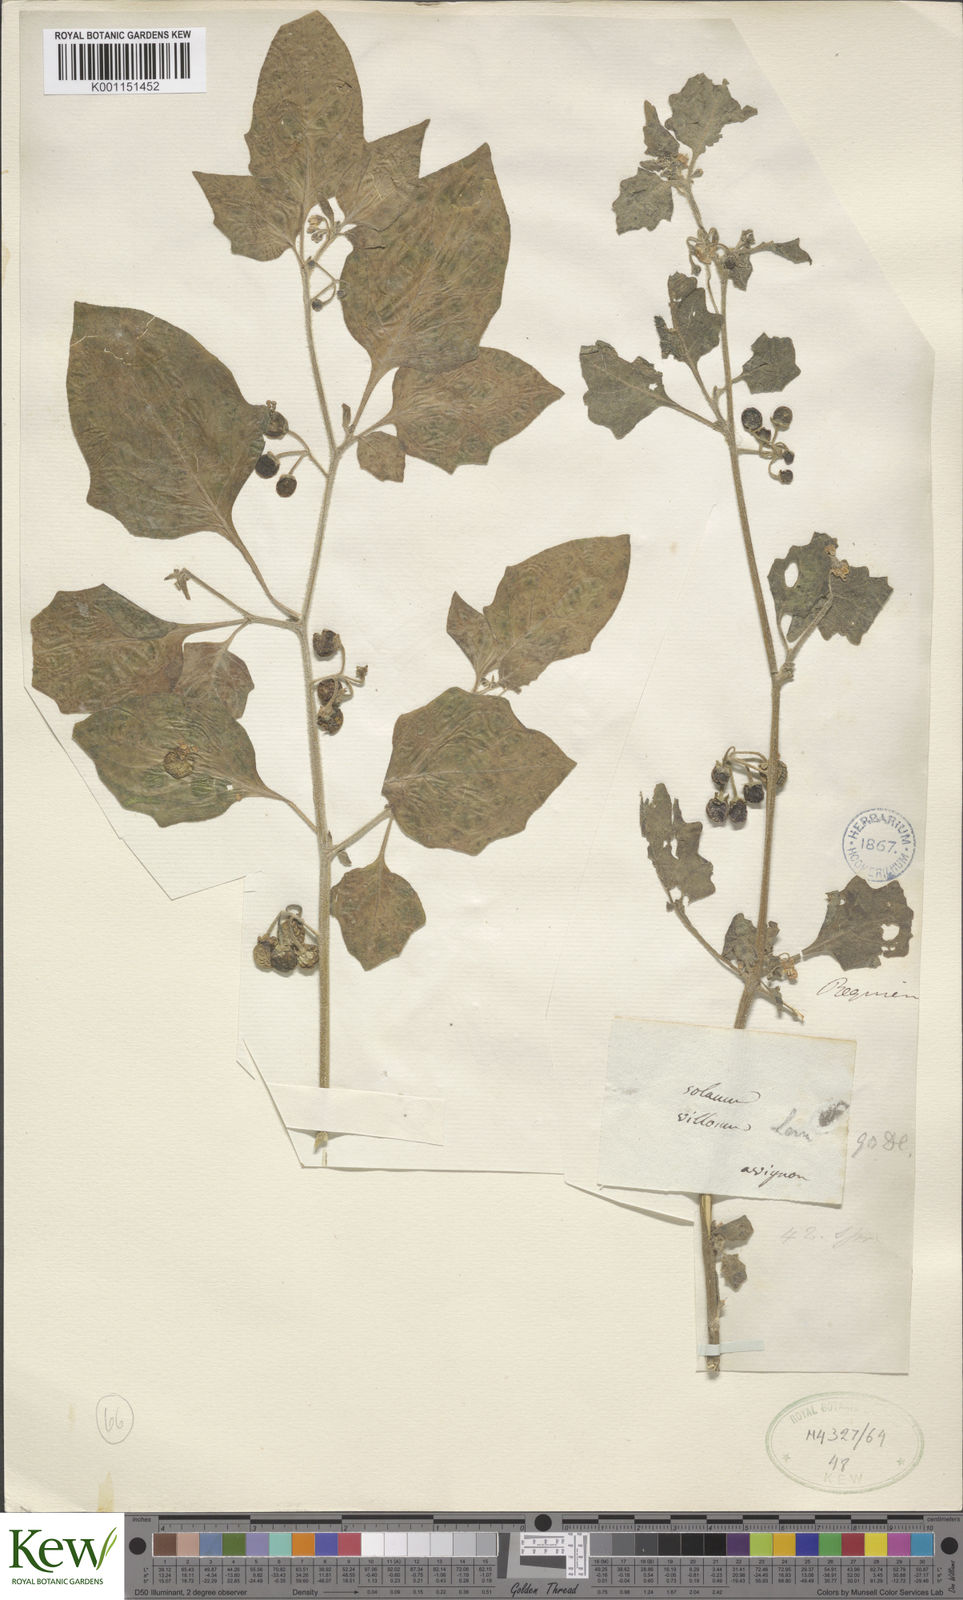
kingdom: Plantae
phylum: Tracheophyta
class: Magnoliopsida
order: Solanales
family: Solanaceae
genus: Solanum
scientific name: Solanum villosum
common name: Red nightshade
